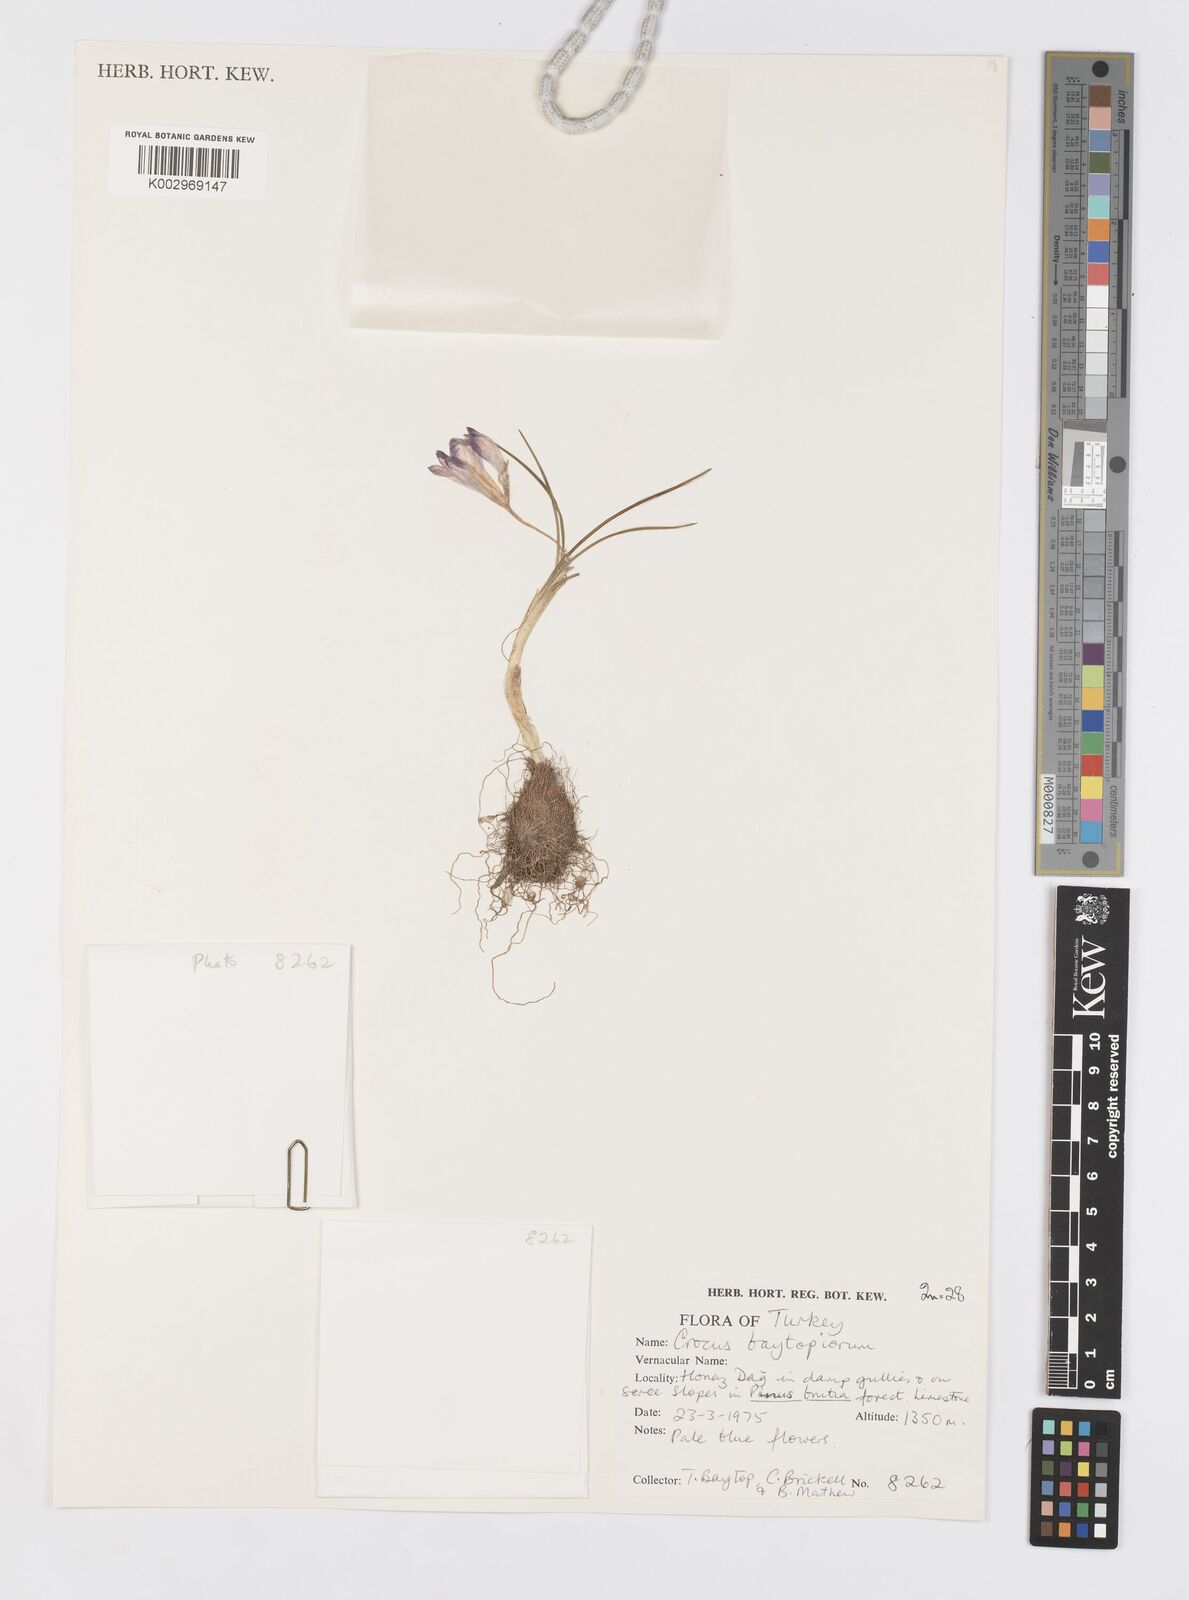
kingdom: Plantae
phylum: Tracheophyta
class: Liliopsida
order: Asparagales
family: Iridaceae
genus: Crocus
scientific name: Crocus baytopiorum
